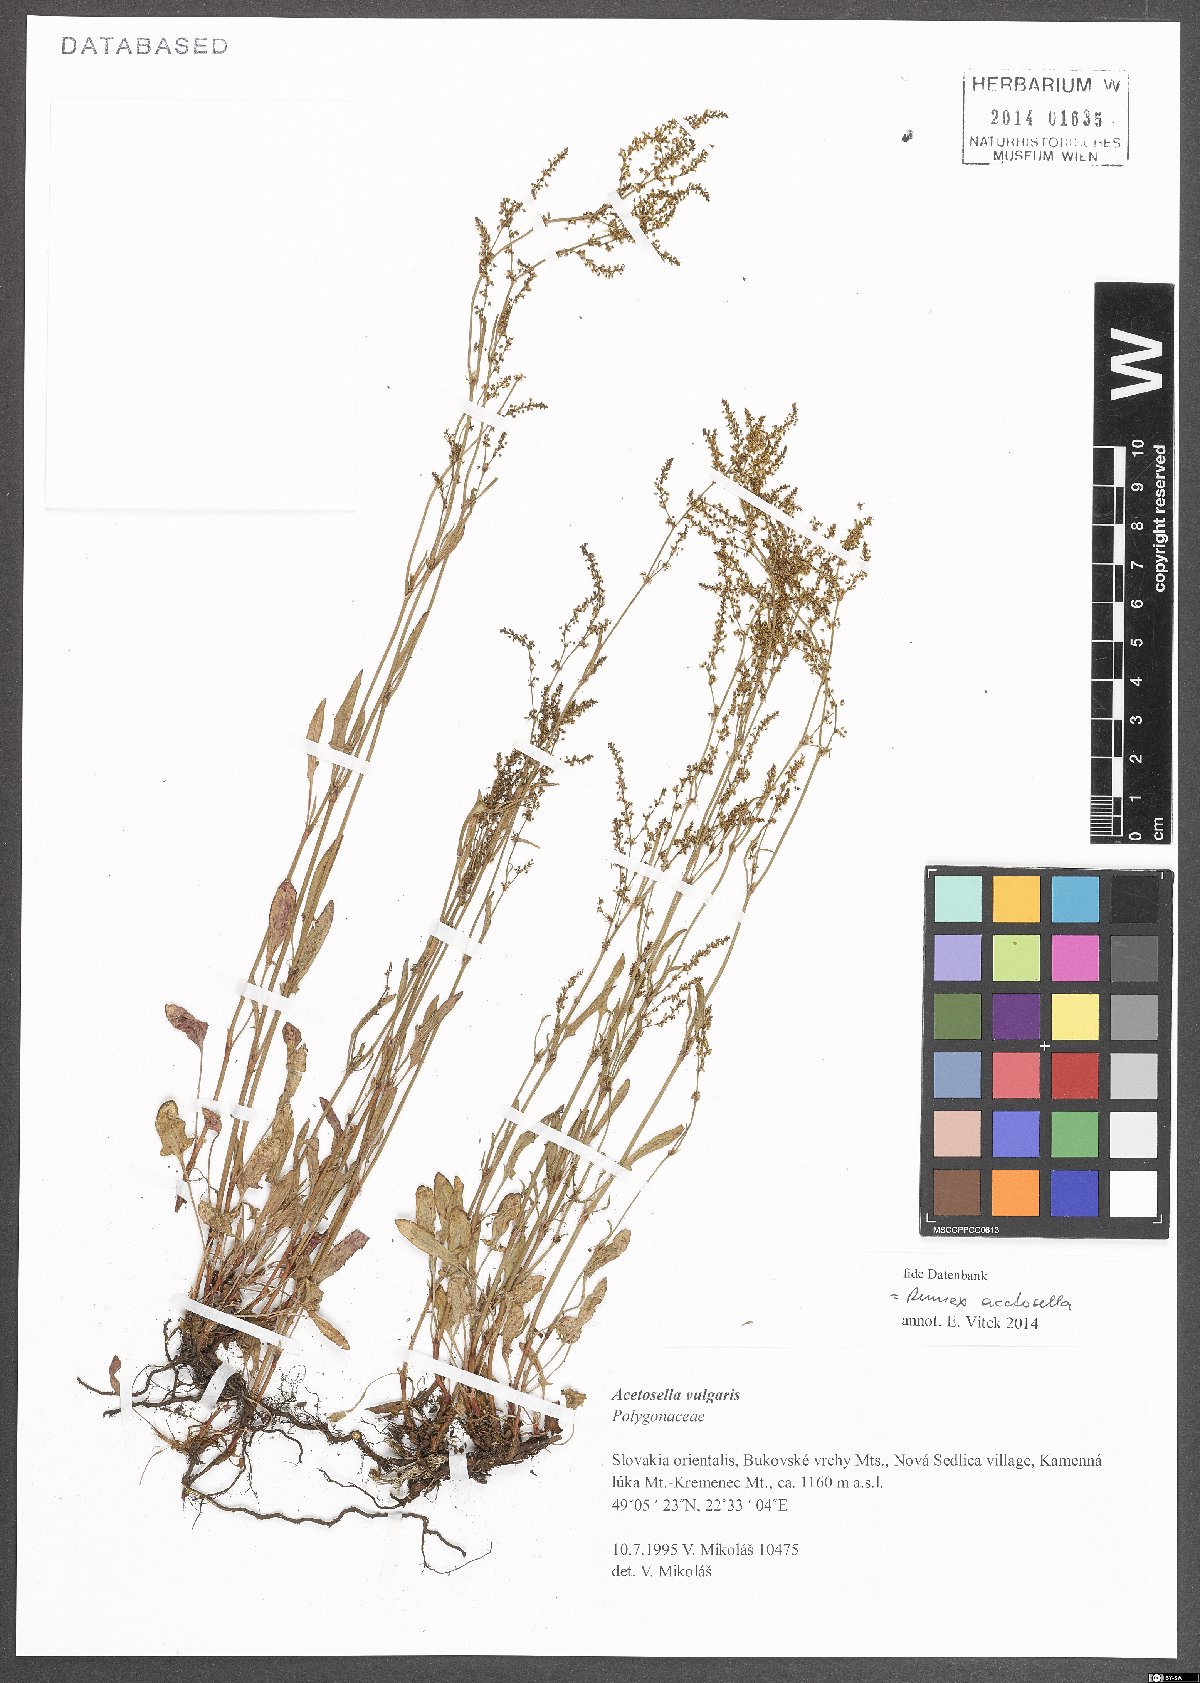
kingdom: Plantae
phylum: Tracheophyta
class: Magnoliopsida
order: Caryophyllales
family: Polygonaceae
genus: Rumex
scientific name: Rumex acetosella
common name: Common sheep sorrel
